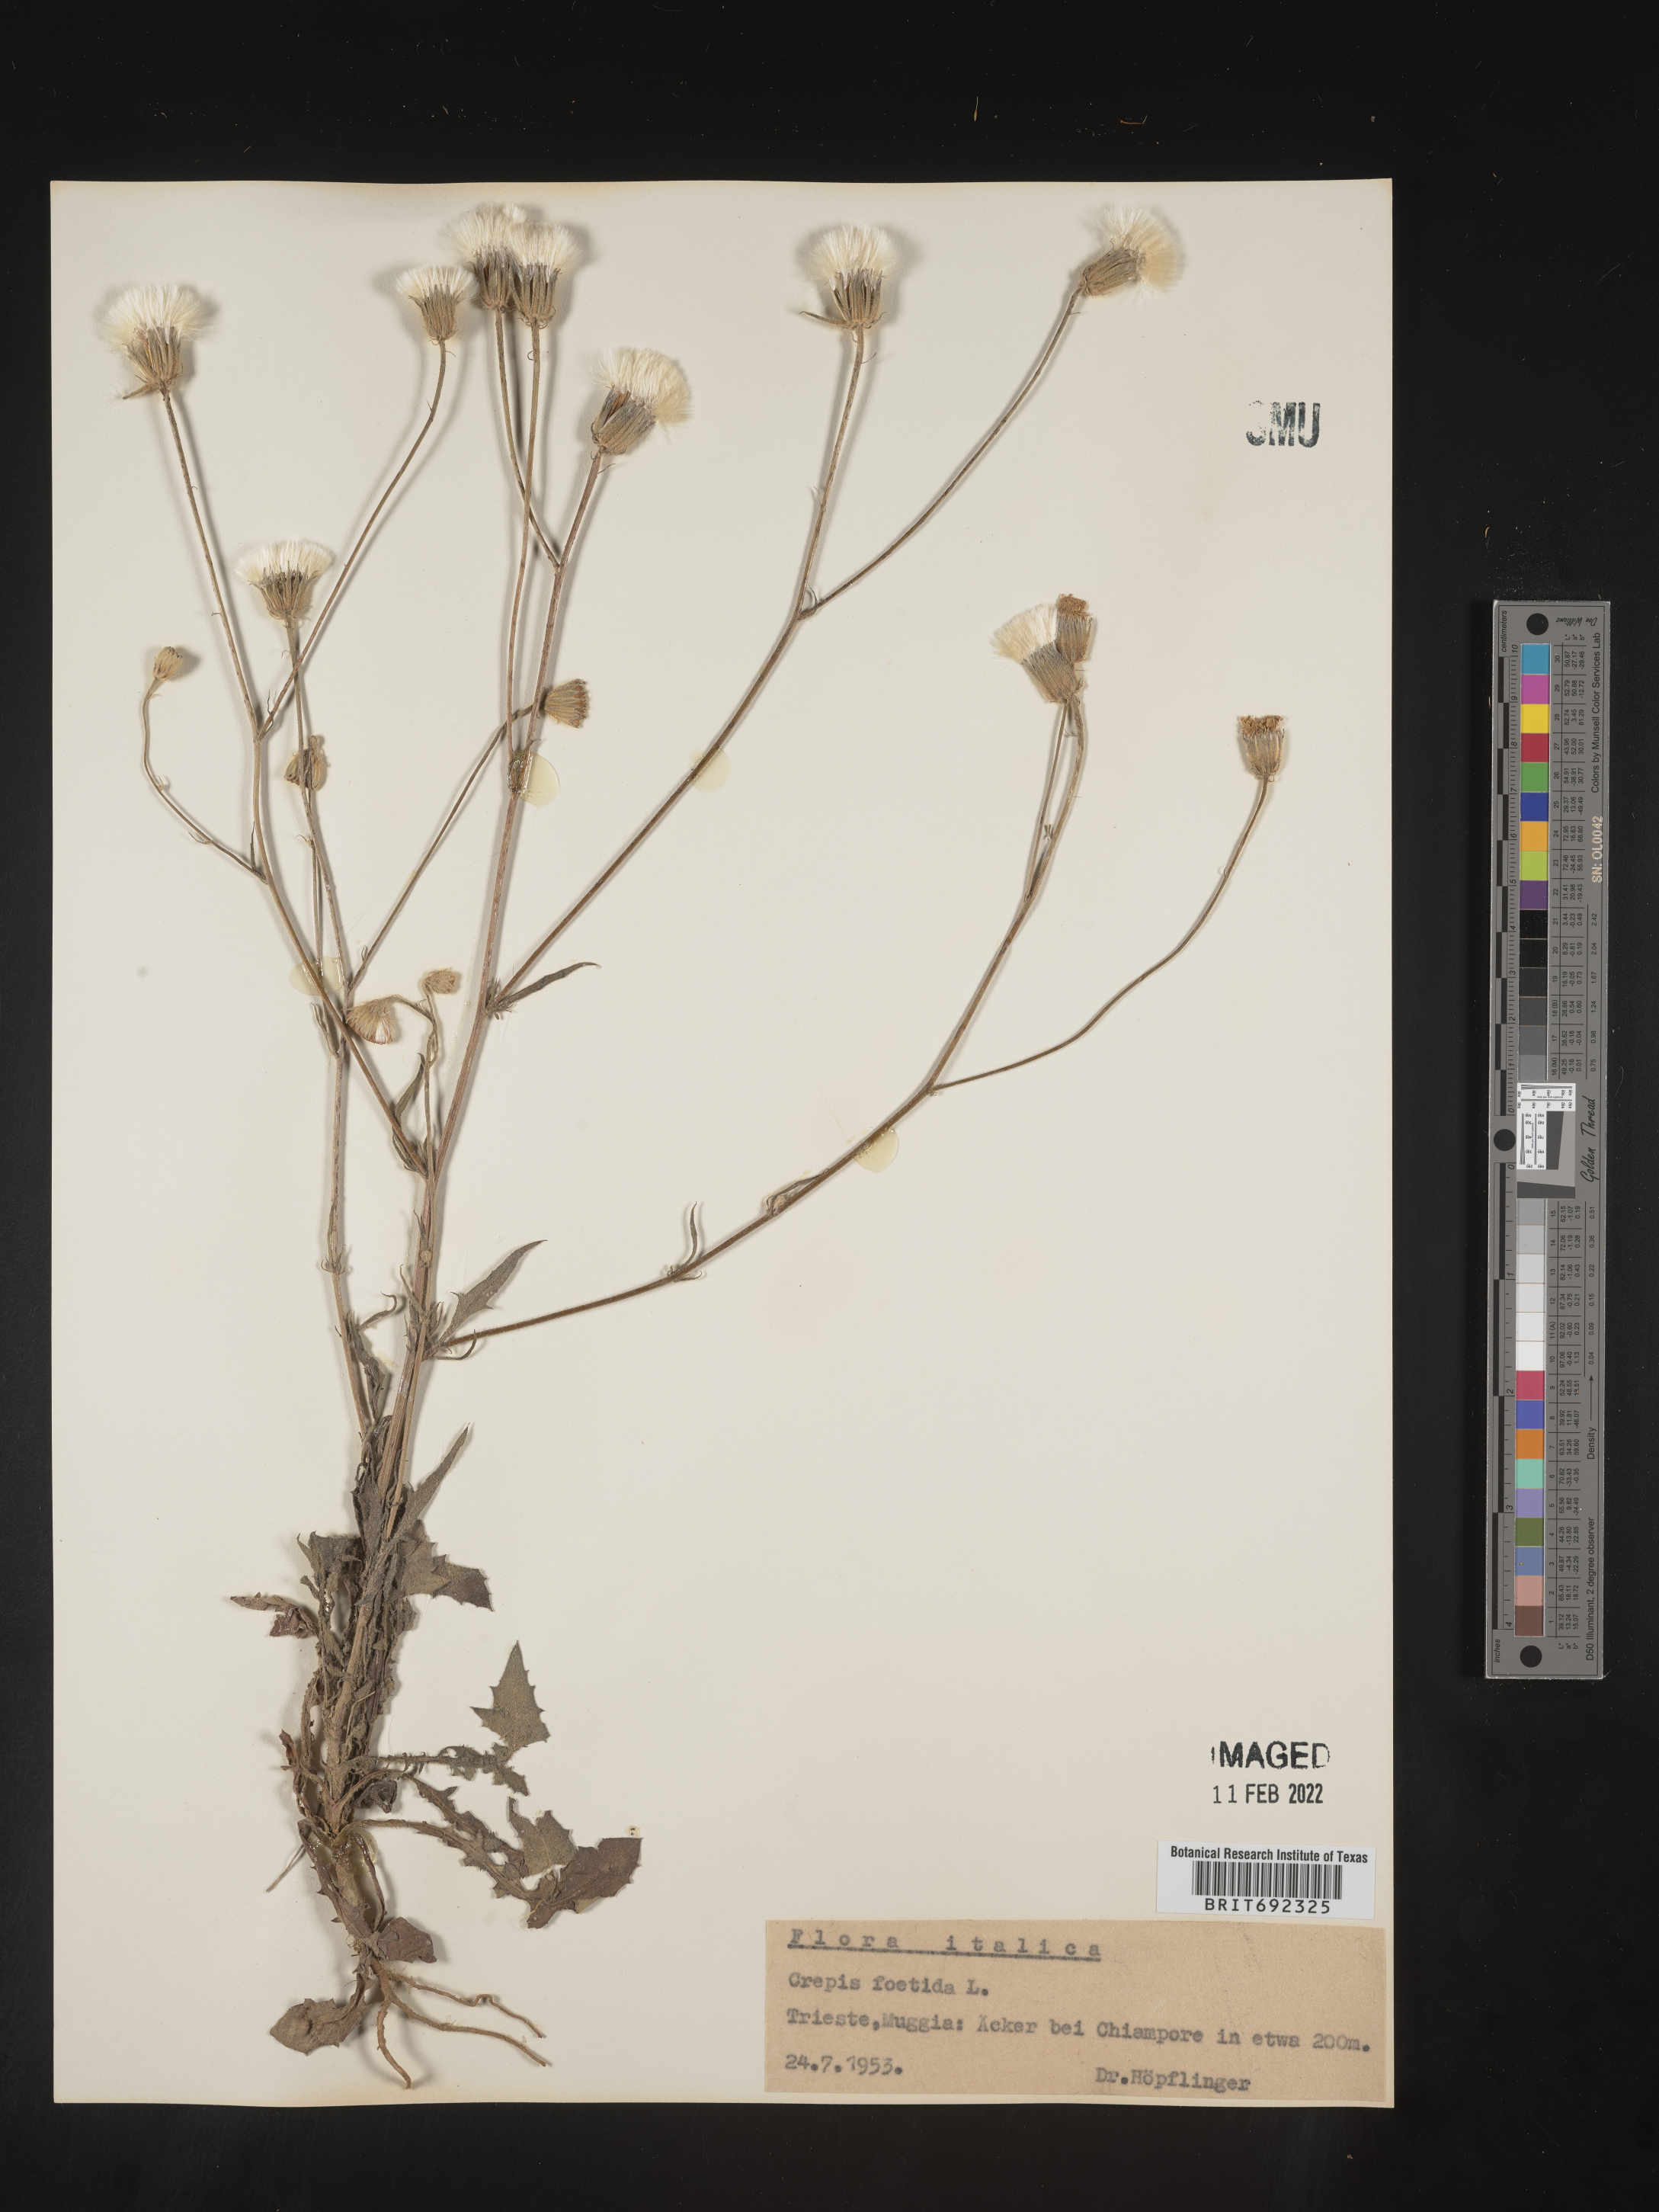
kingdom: Plantae
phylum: Tracheophyta
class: Magnoliopsida
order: Asterales
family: Asteraceae
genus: Crepis
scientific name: Crepis
